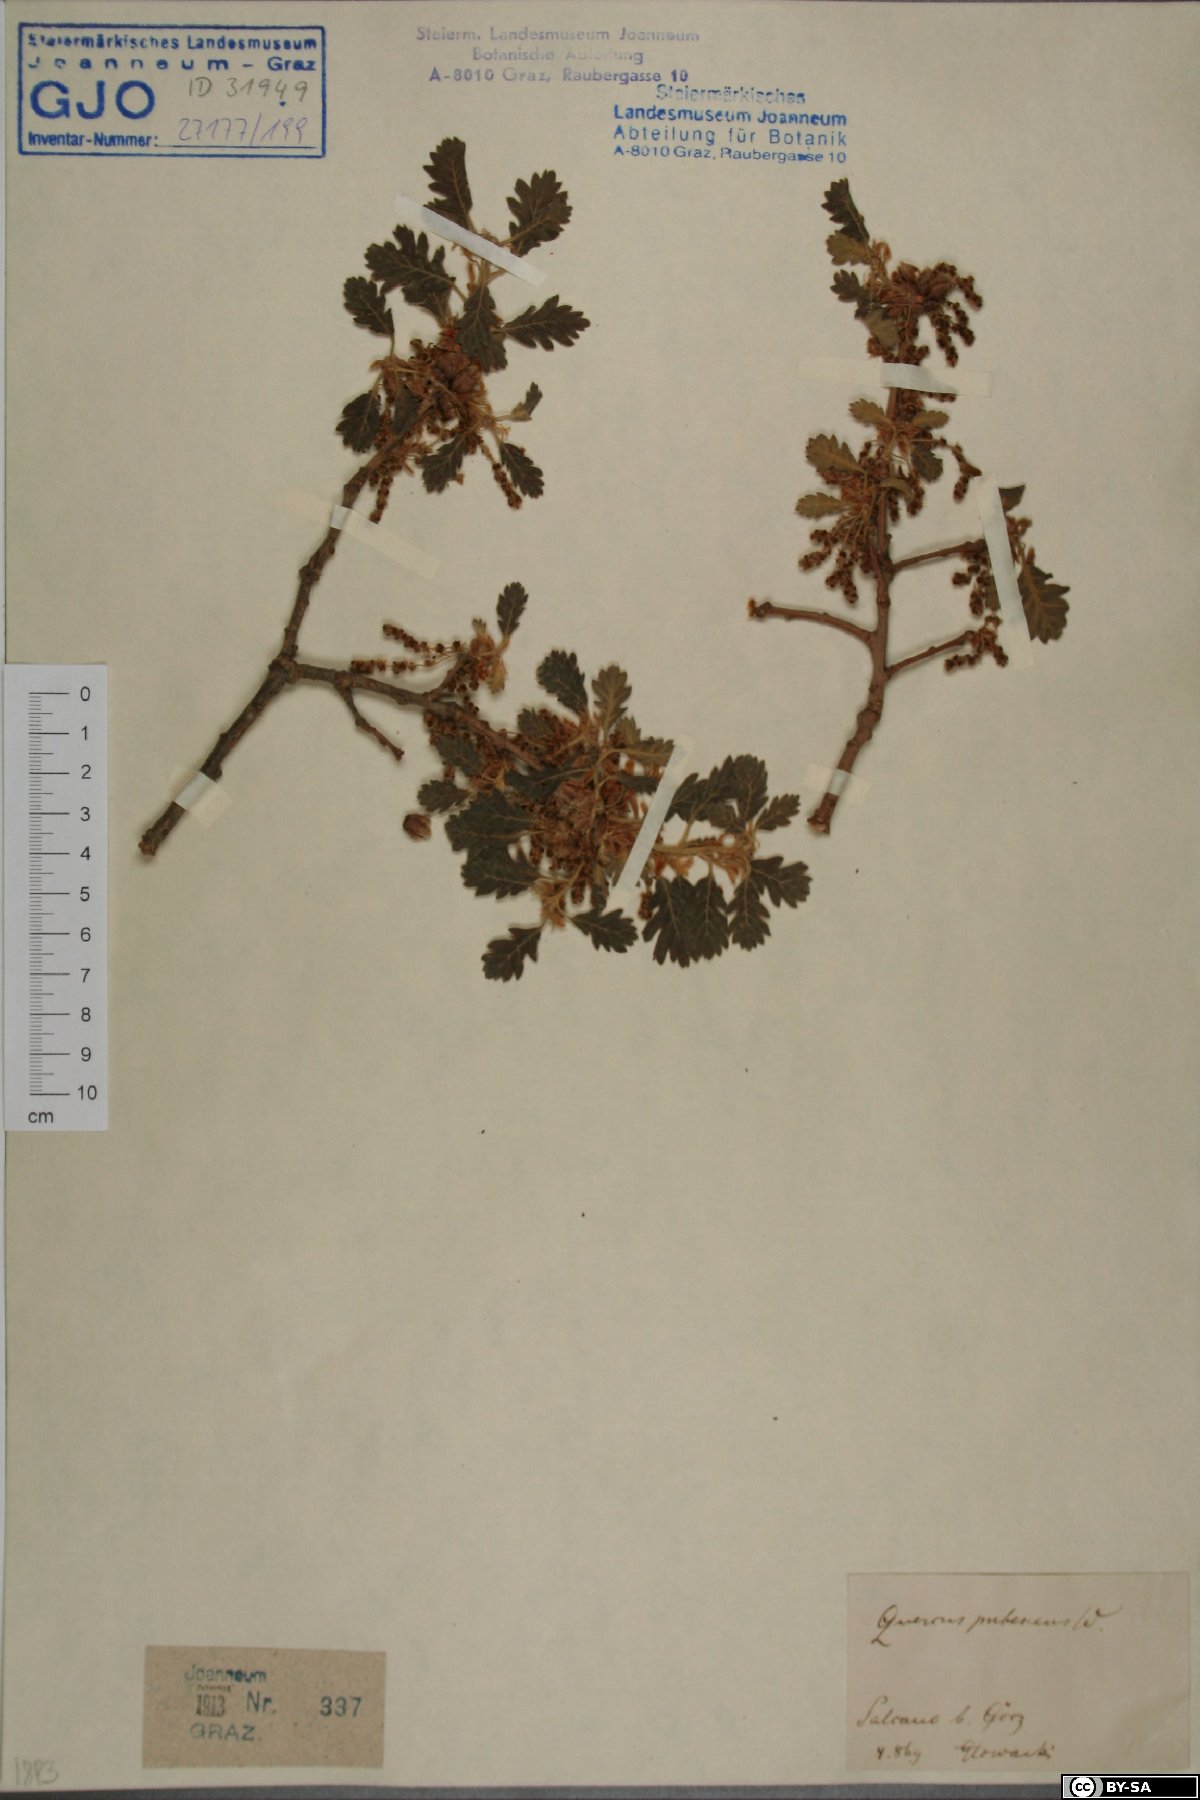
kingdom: Plantae
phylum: Tracheophyta
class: Magnoliopsida
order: Fagales
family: Fagaceae
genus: Quercus
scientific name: Quercus pubescens
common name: Downy oak
